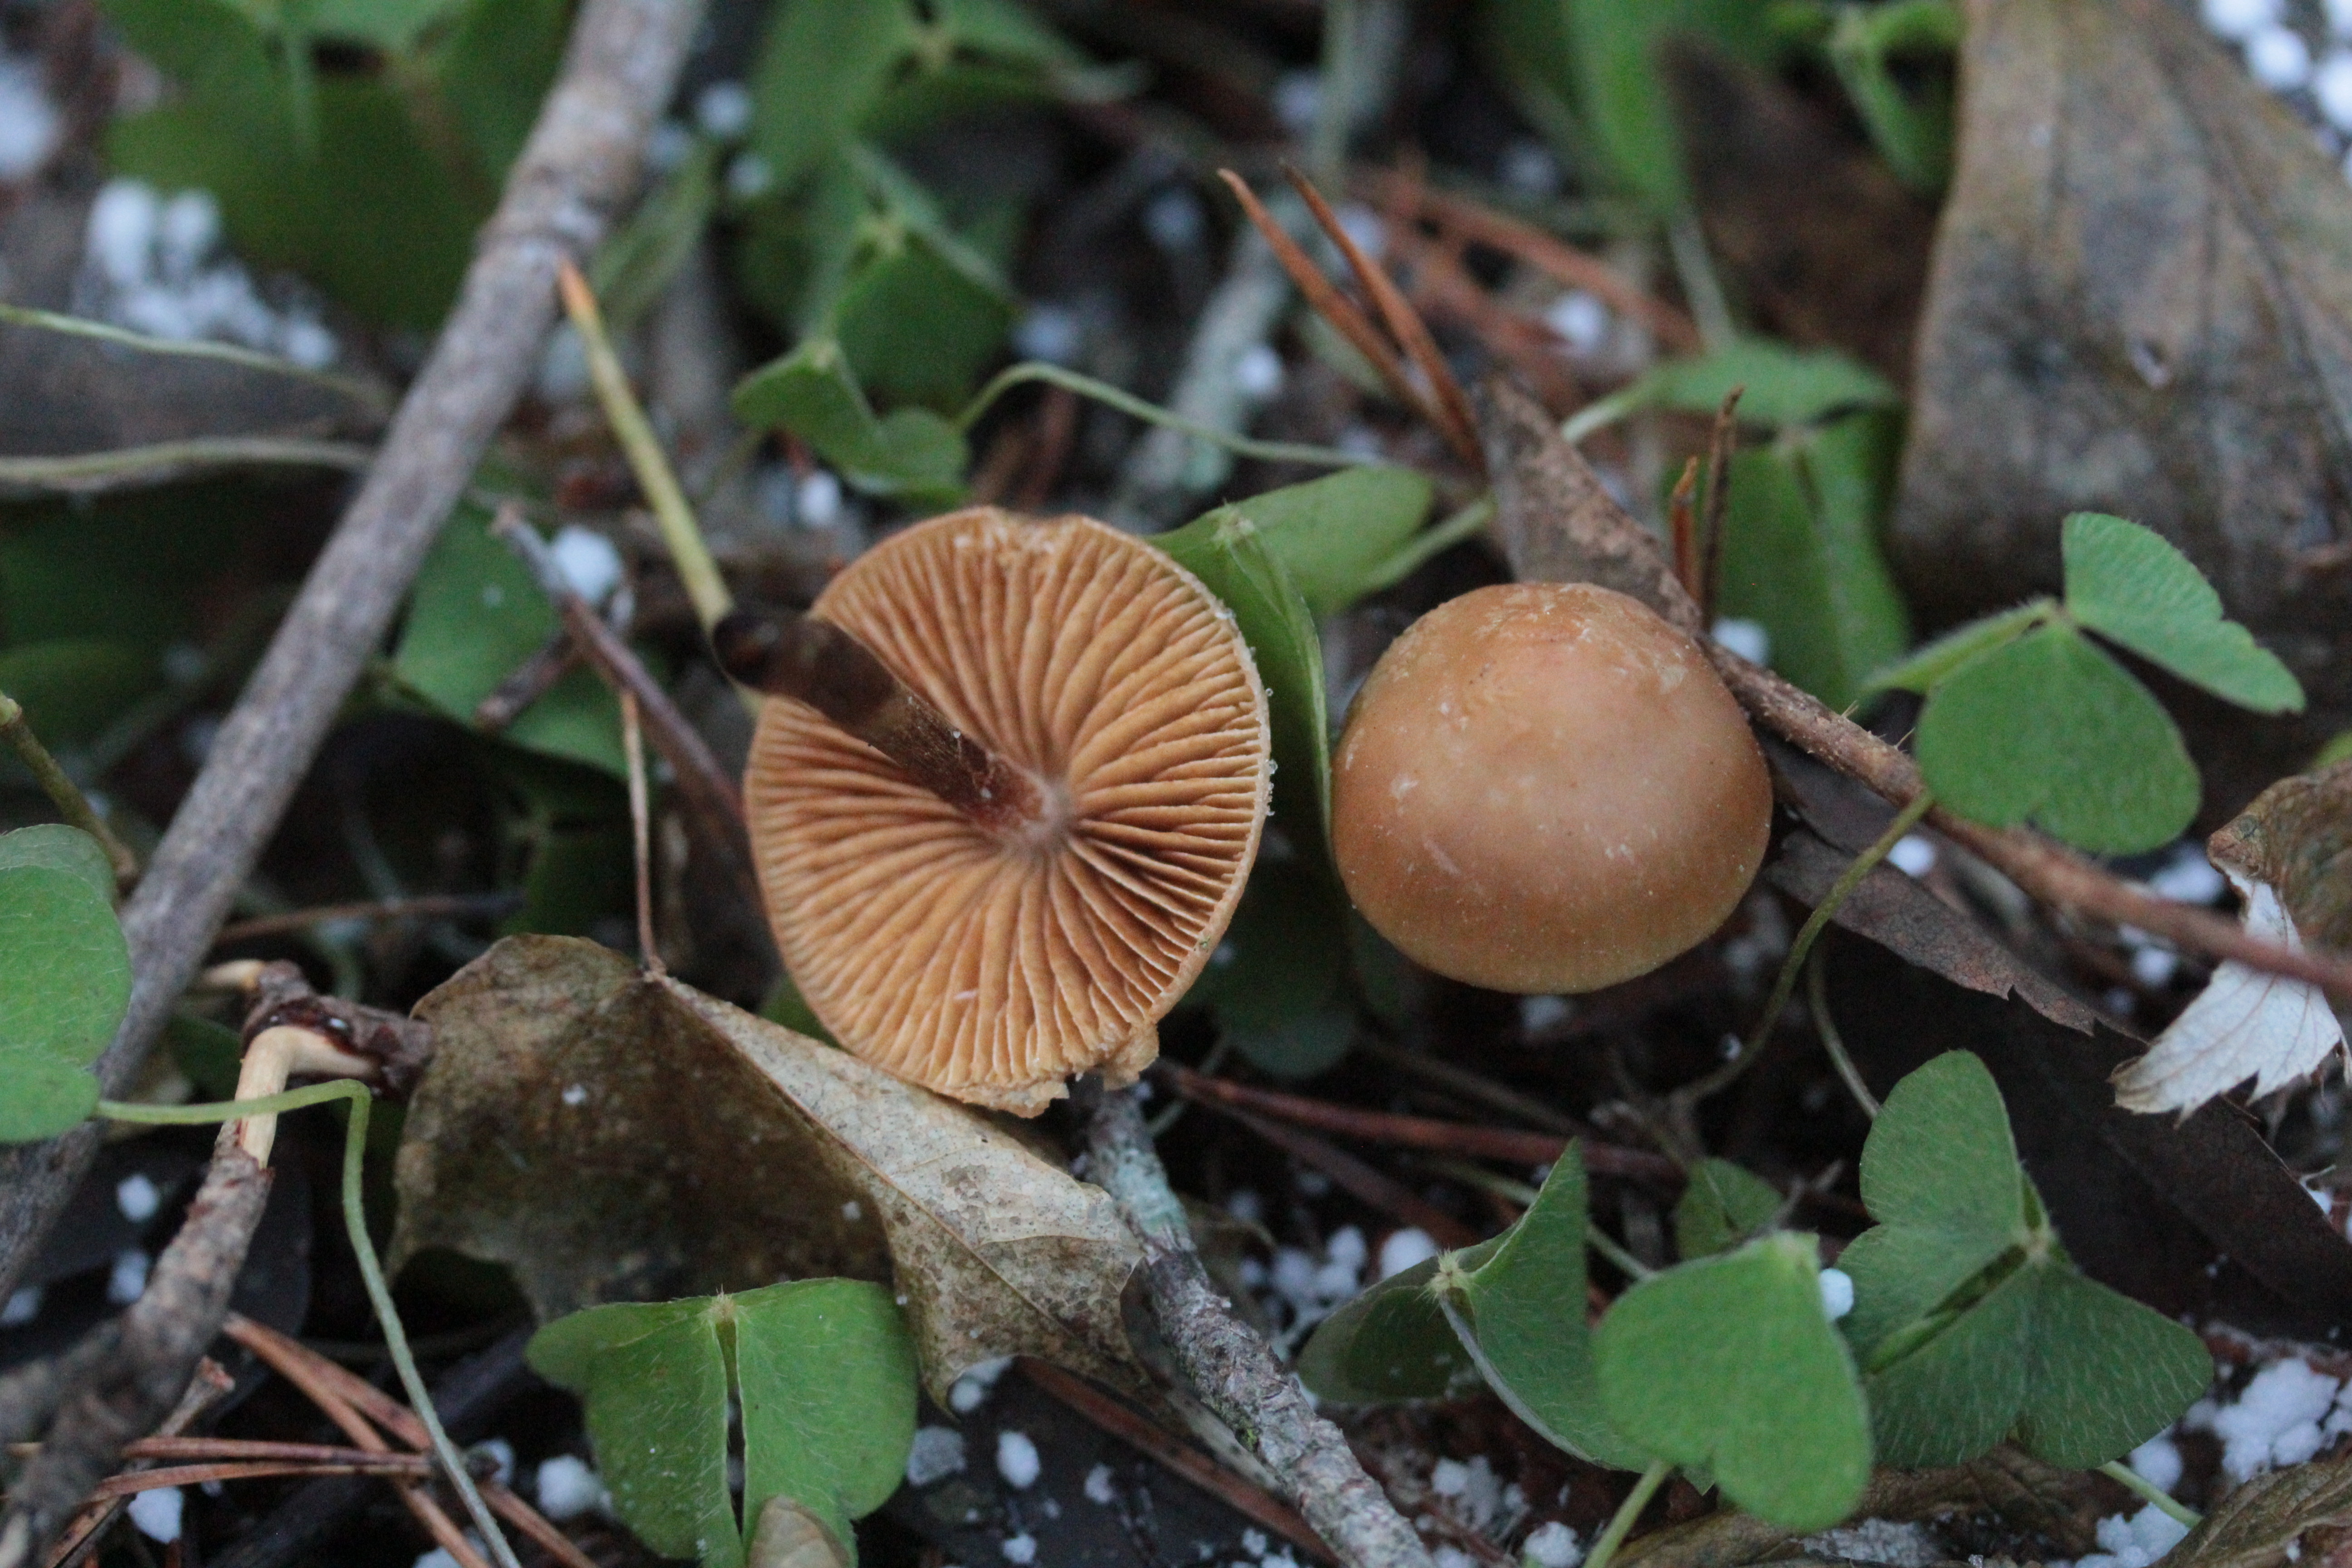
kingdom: Fungi
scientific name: Fungi
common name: Fungi
